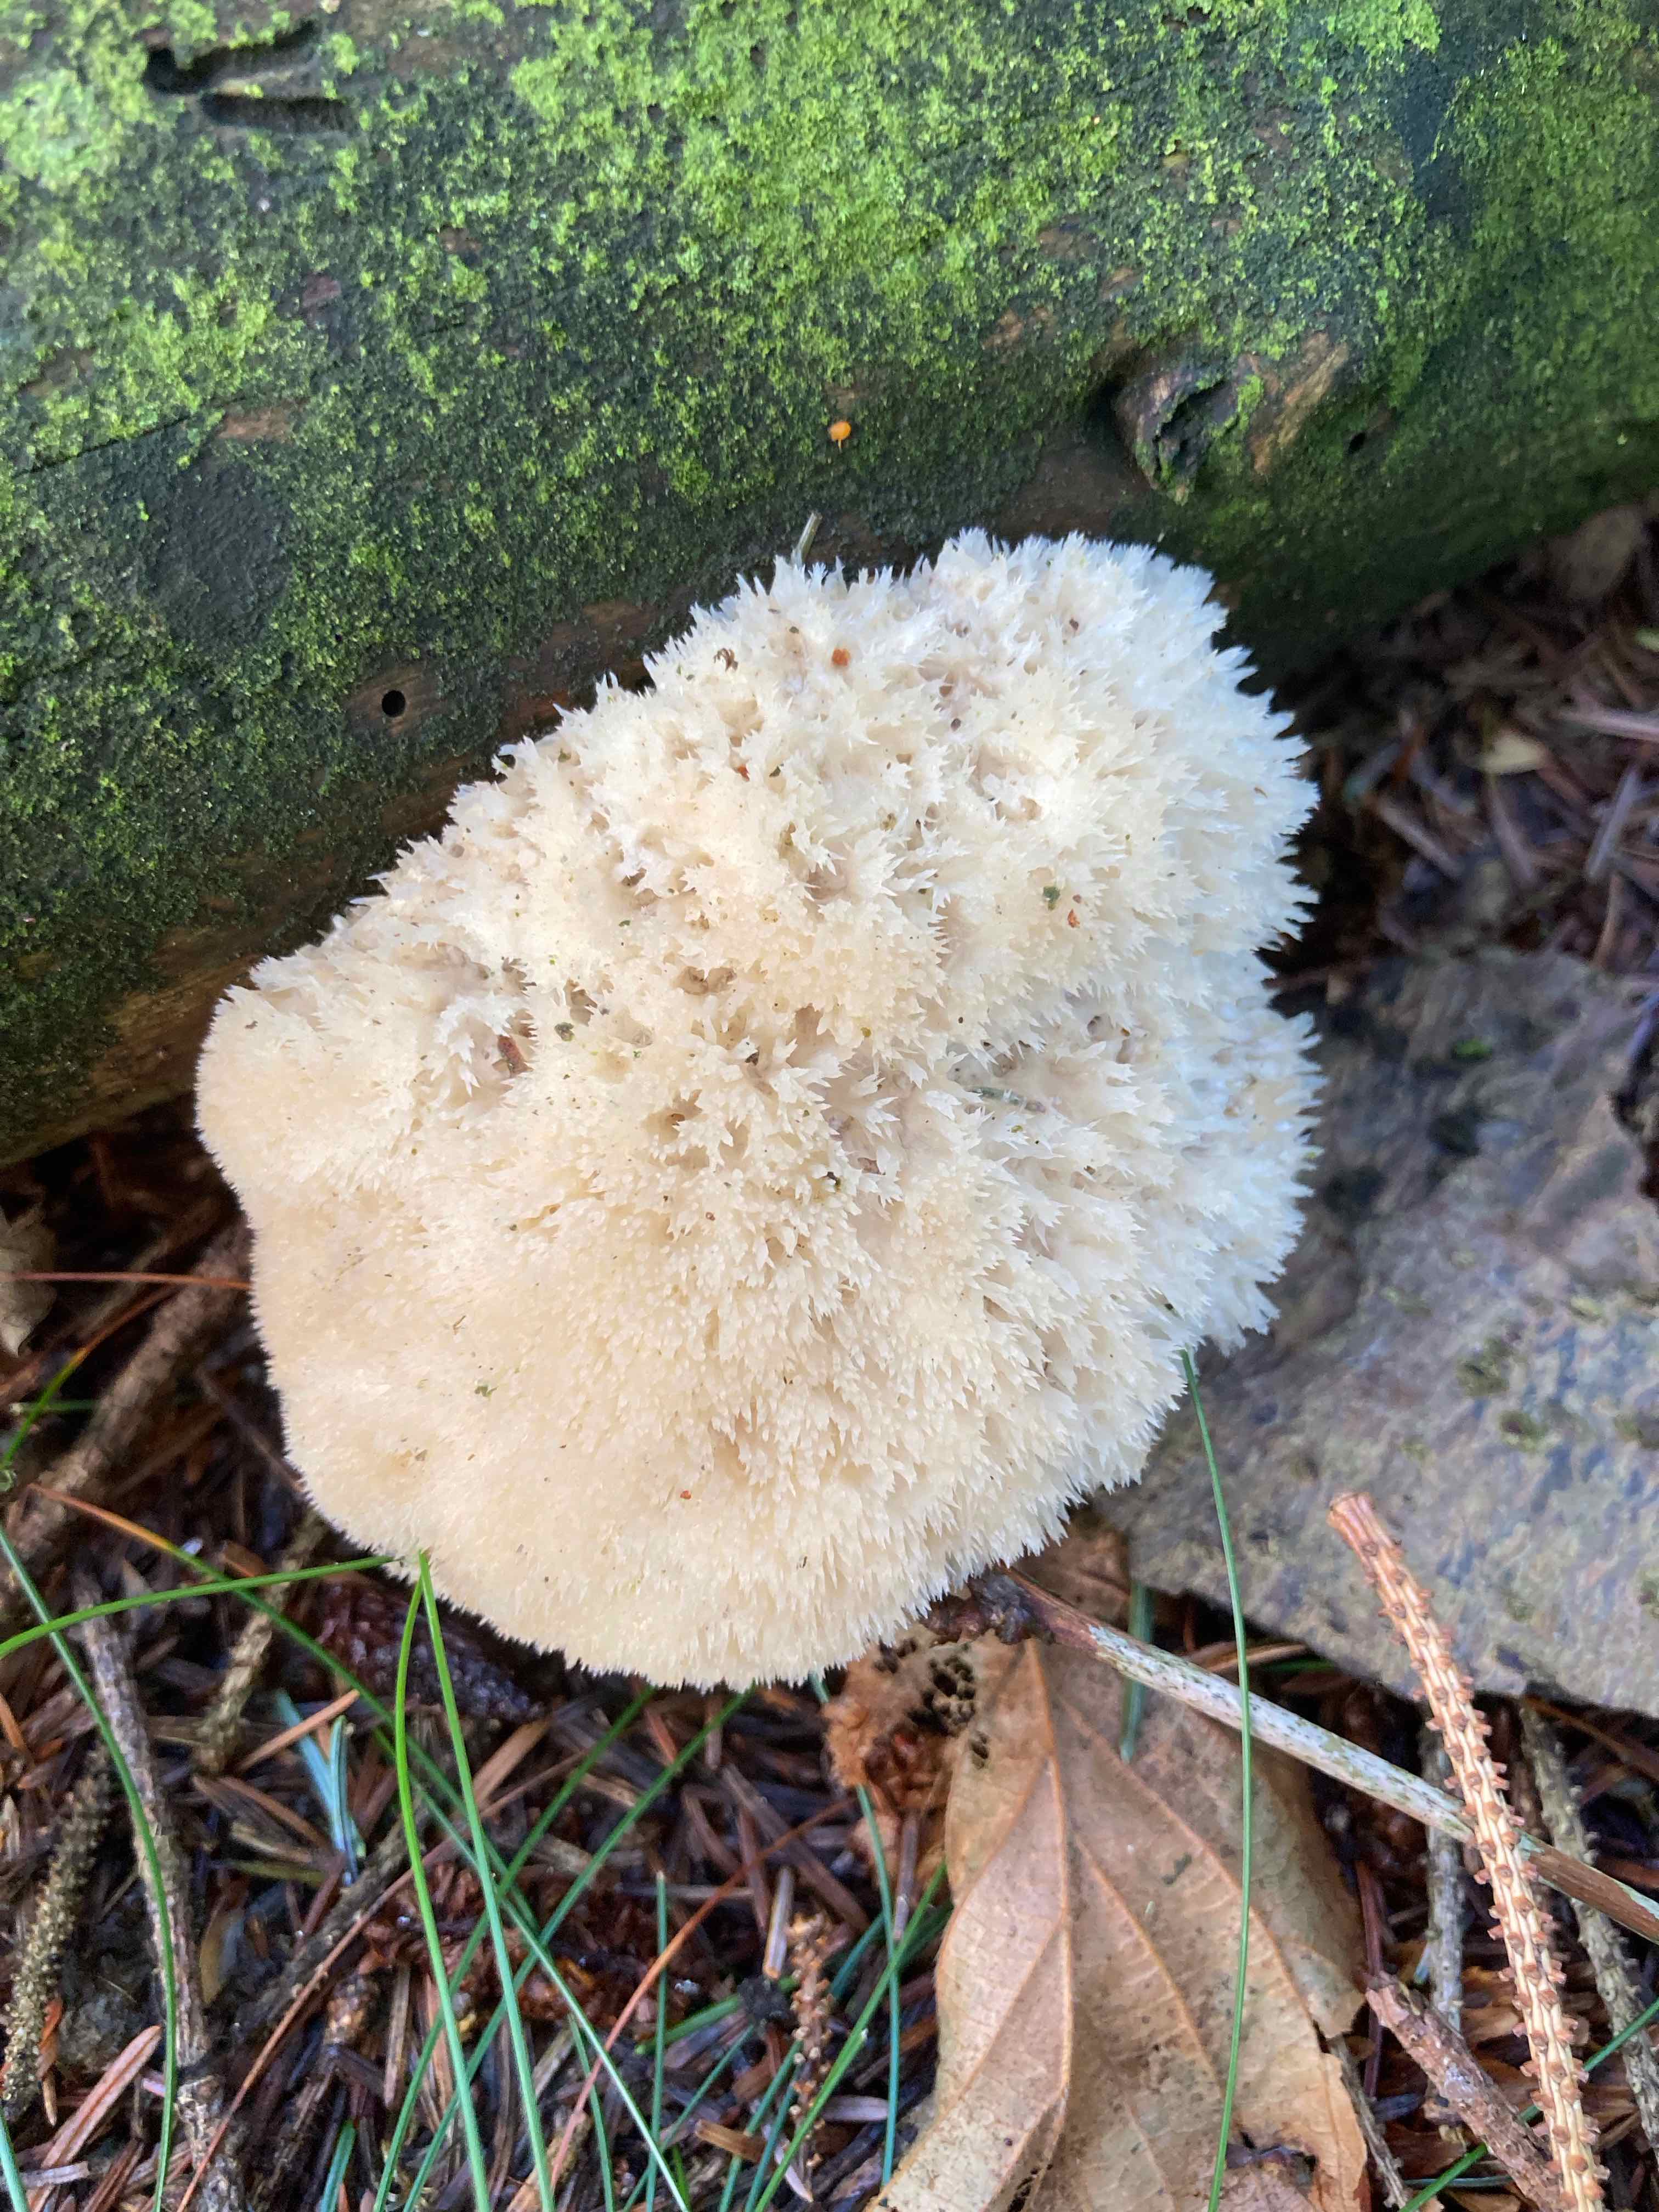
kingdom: Fungi
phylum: Basidiomycota
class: Agaricomycetes
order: Polyporales
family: Dacryobolaceae
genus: Postia
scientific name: Postia ptychogaster
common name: støvende kødporesvamp
